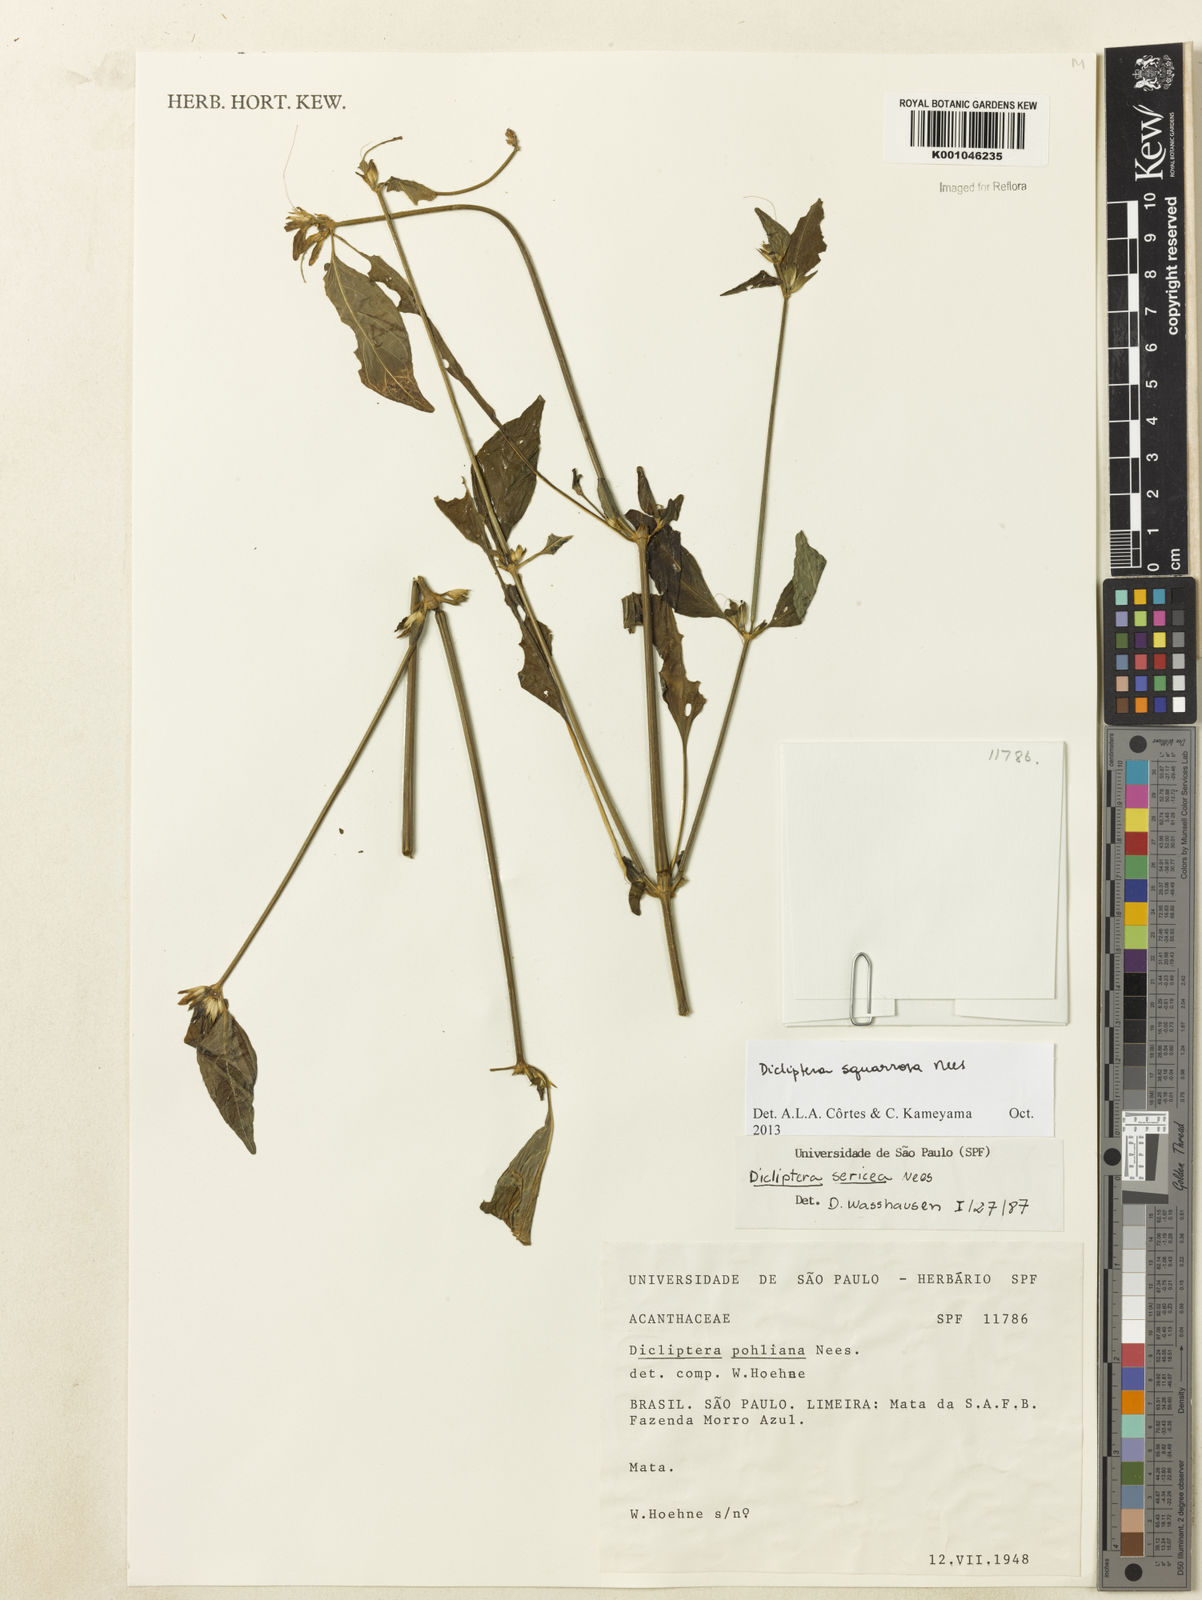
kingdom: Plantae
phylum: Tracheophyta
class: Magnoliopsida
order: Lamiales
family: Acanthaceae
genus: Dicliptera
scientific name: Dicliptera squarrosa
